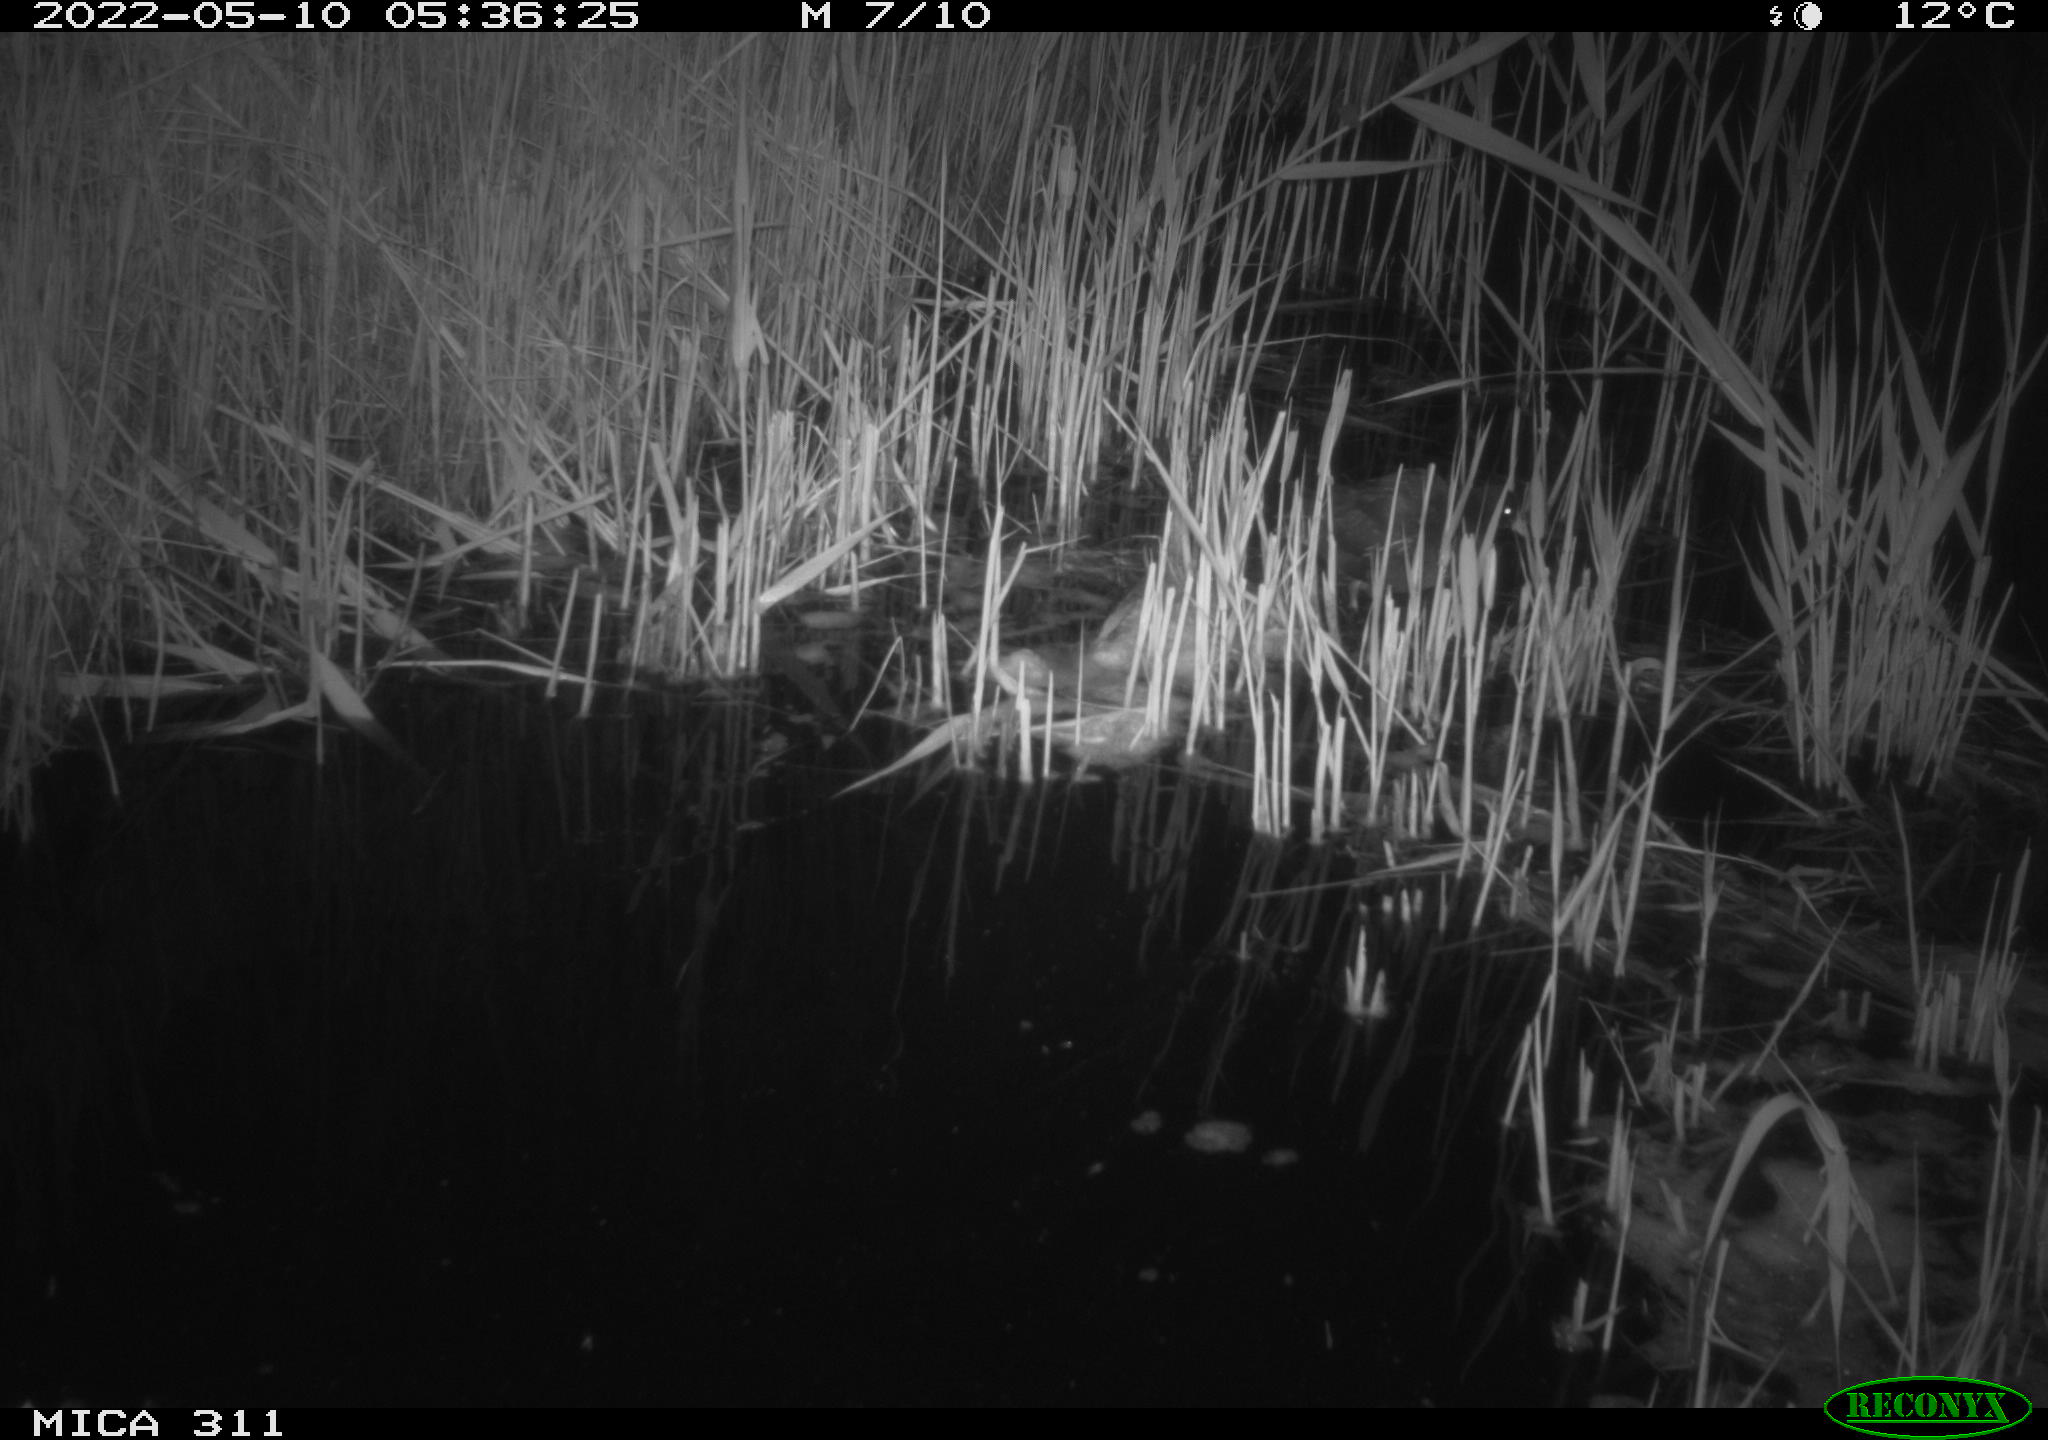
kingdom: Animalia
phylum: Chordata
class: Aves
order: Gruiformes
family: Rallidae
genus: Gallinula
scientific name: Gallinula chloropus
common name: Common moorhen
